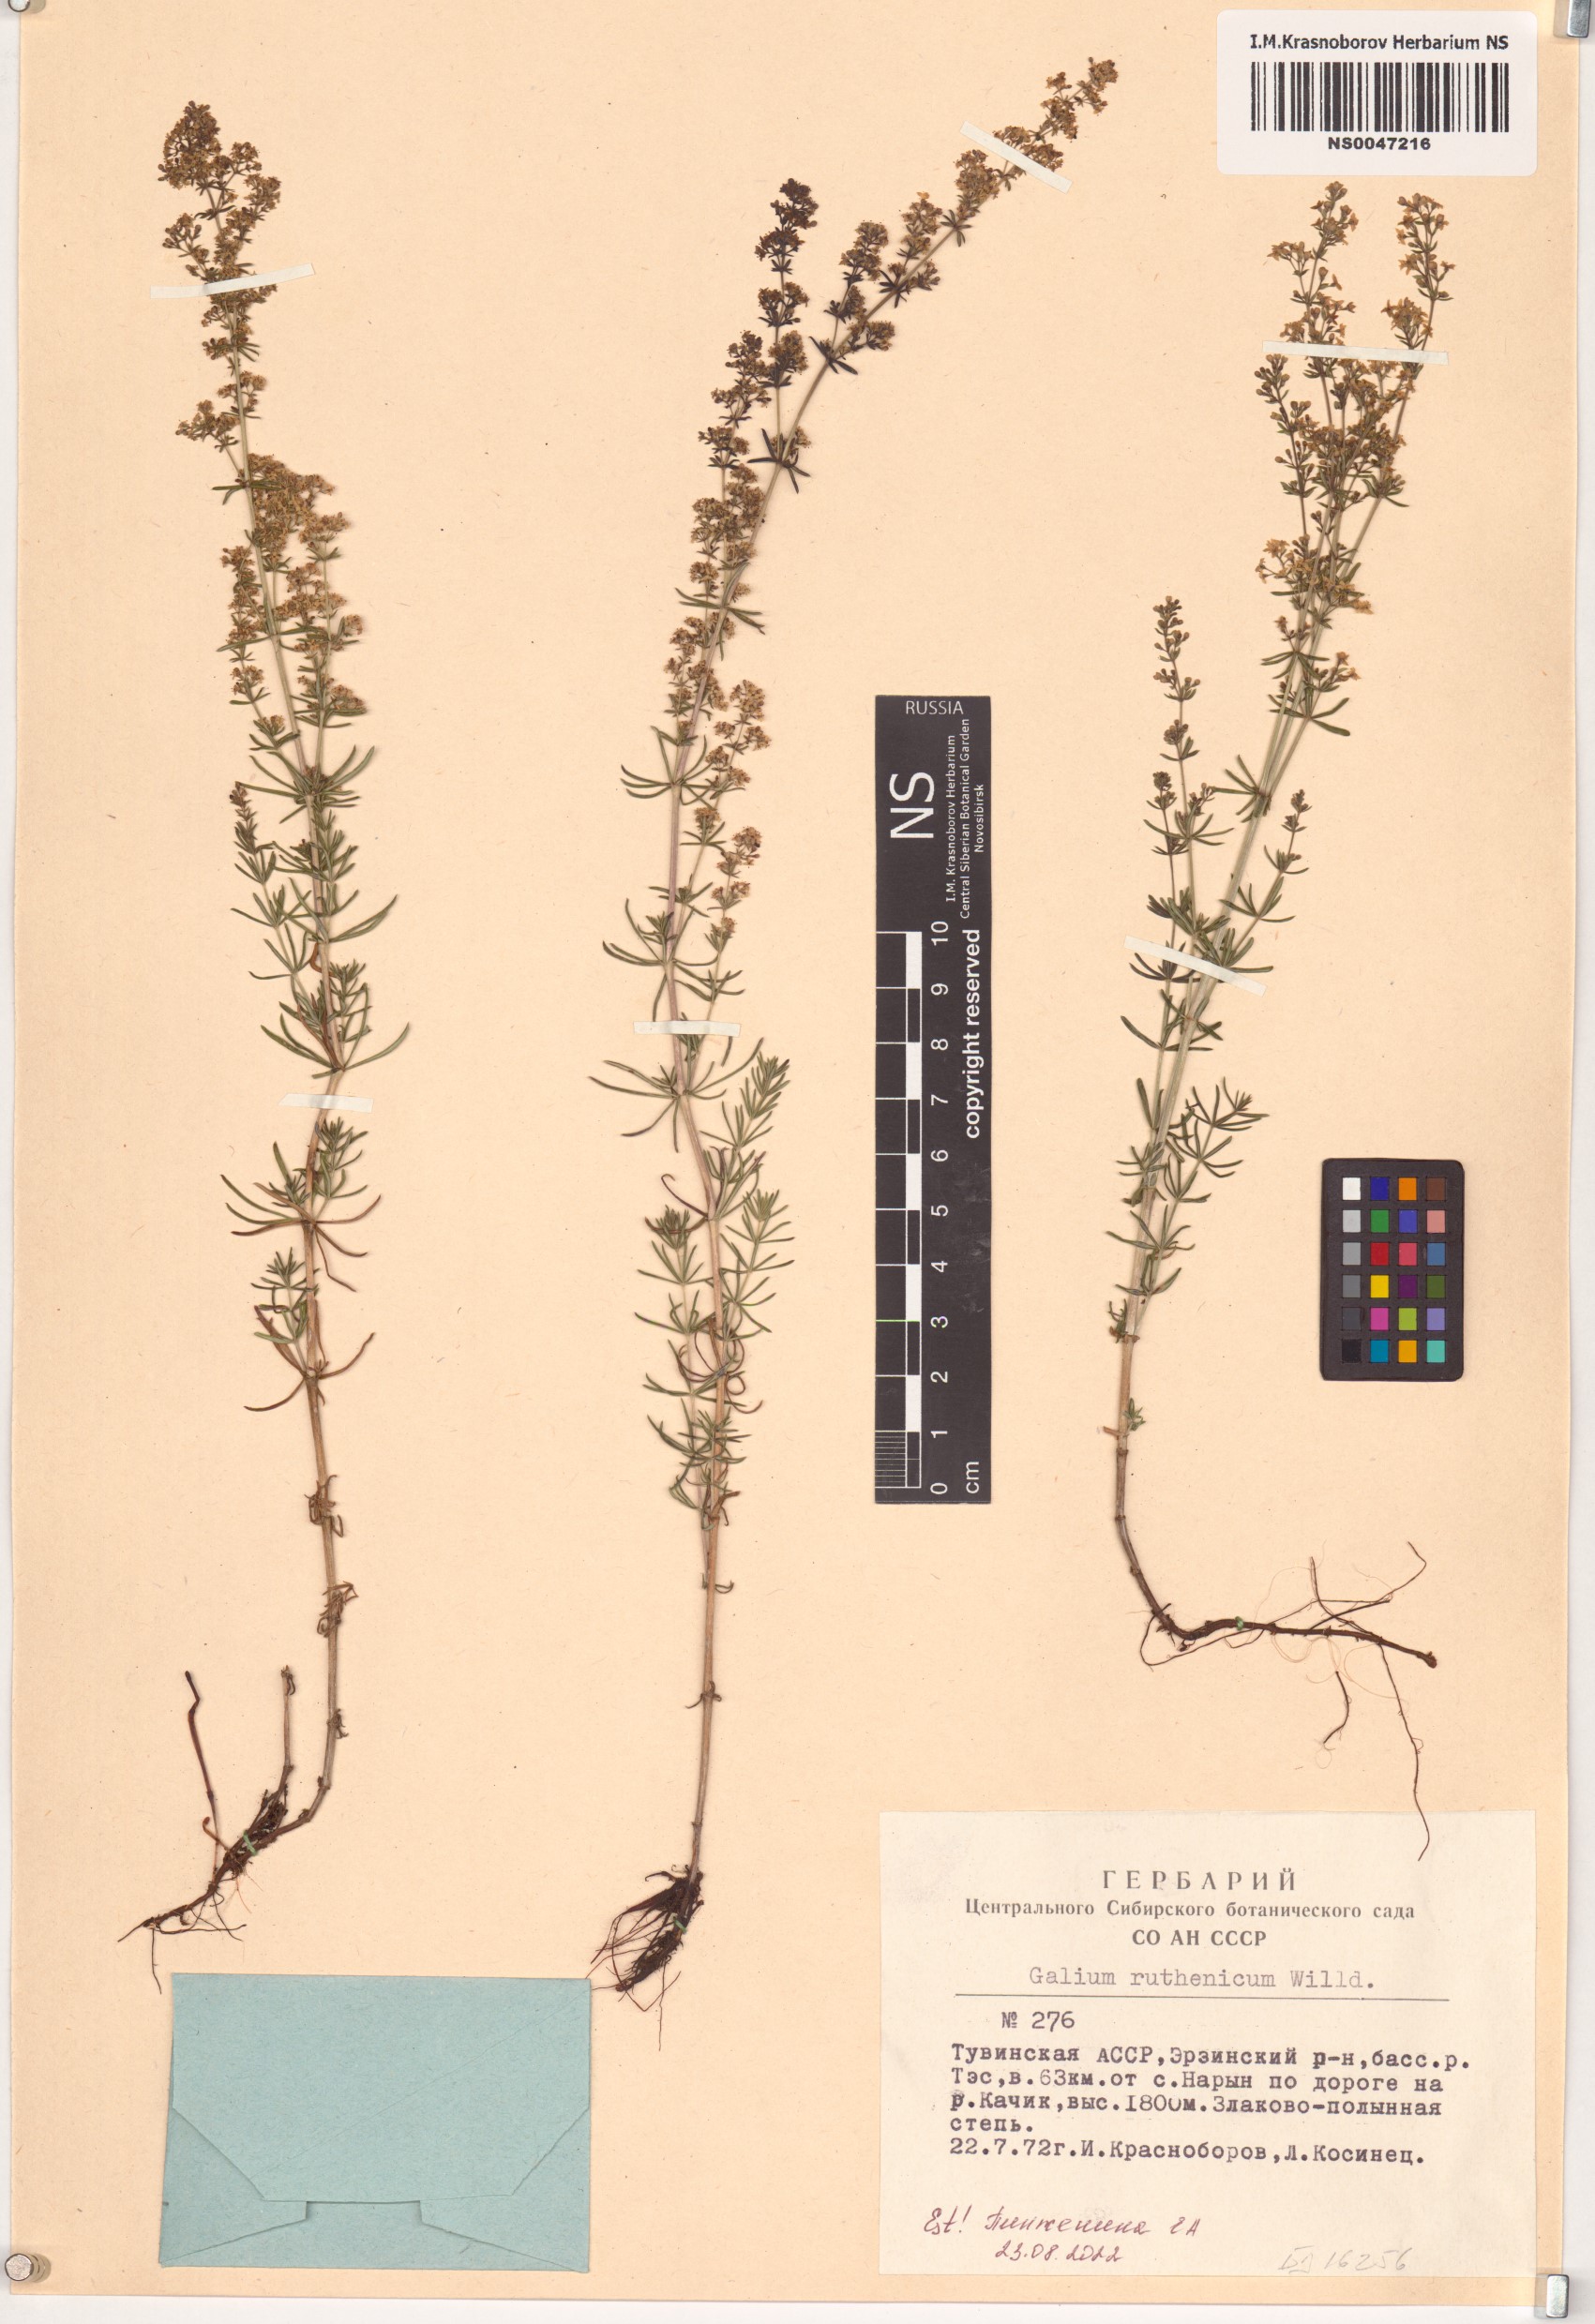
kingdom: Plantae
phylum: Tracheophyta
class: Magnoliopsida
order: Gentianales
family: Rubiaceae
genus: Galium
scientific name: Galium verum
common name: Lady's bedstraw
